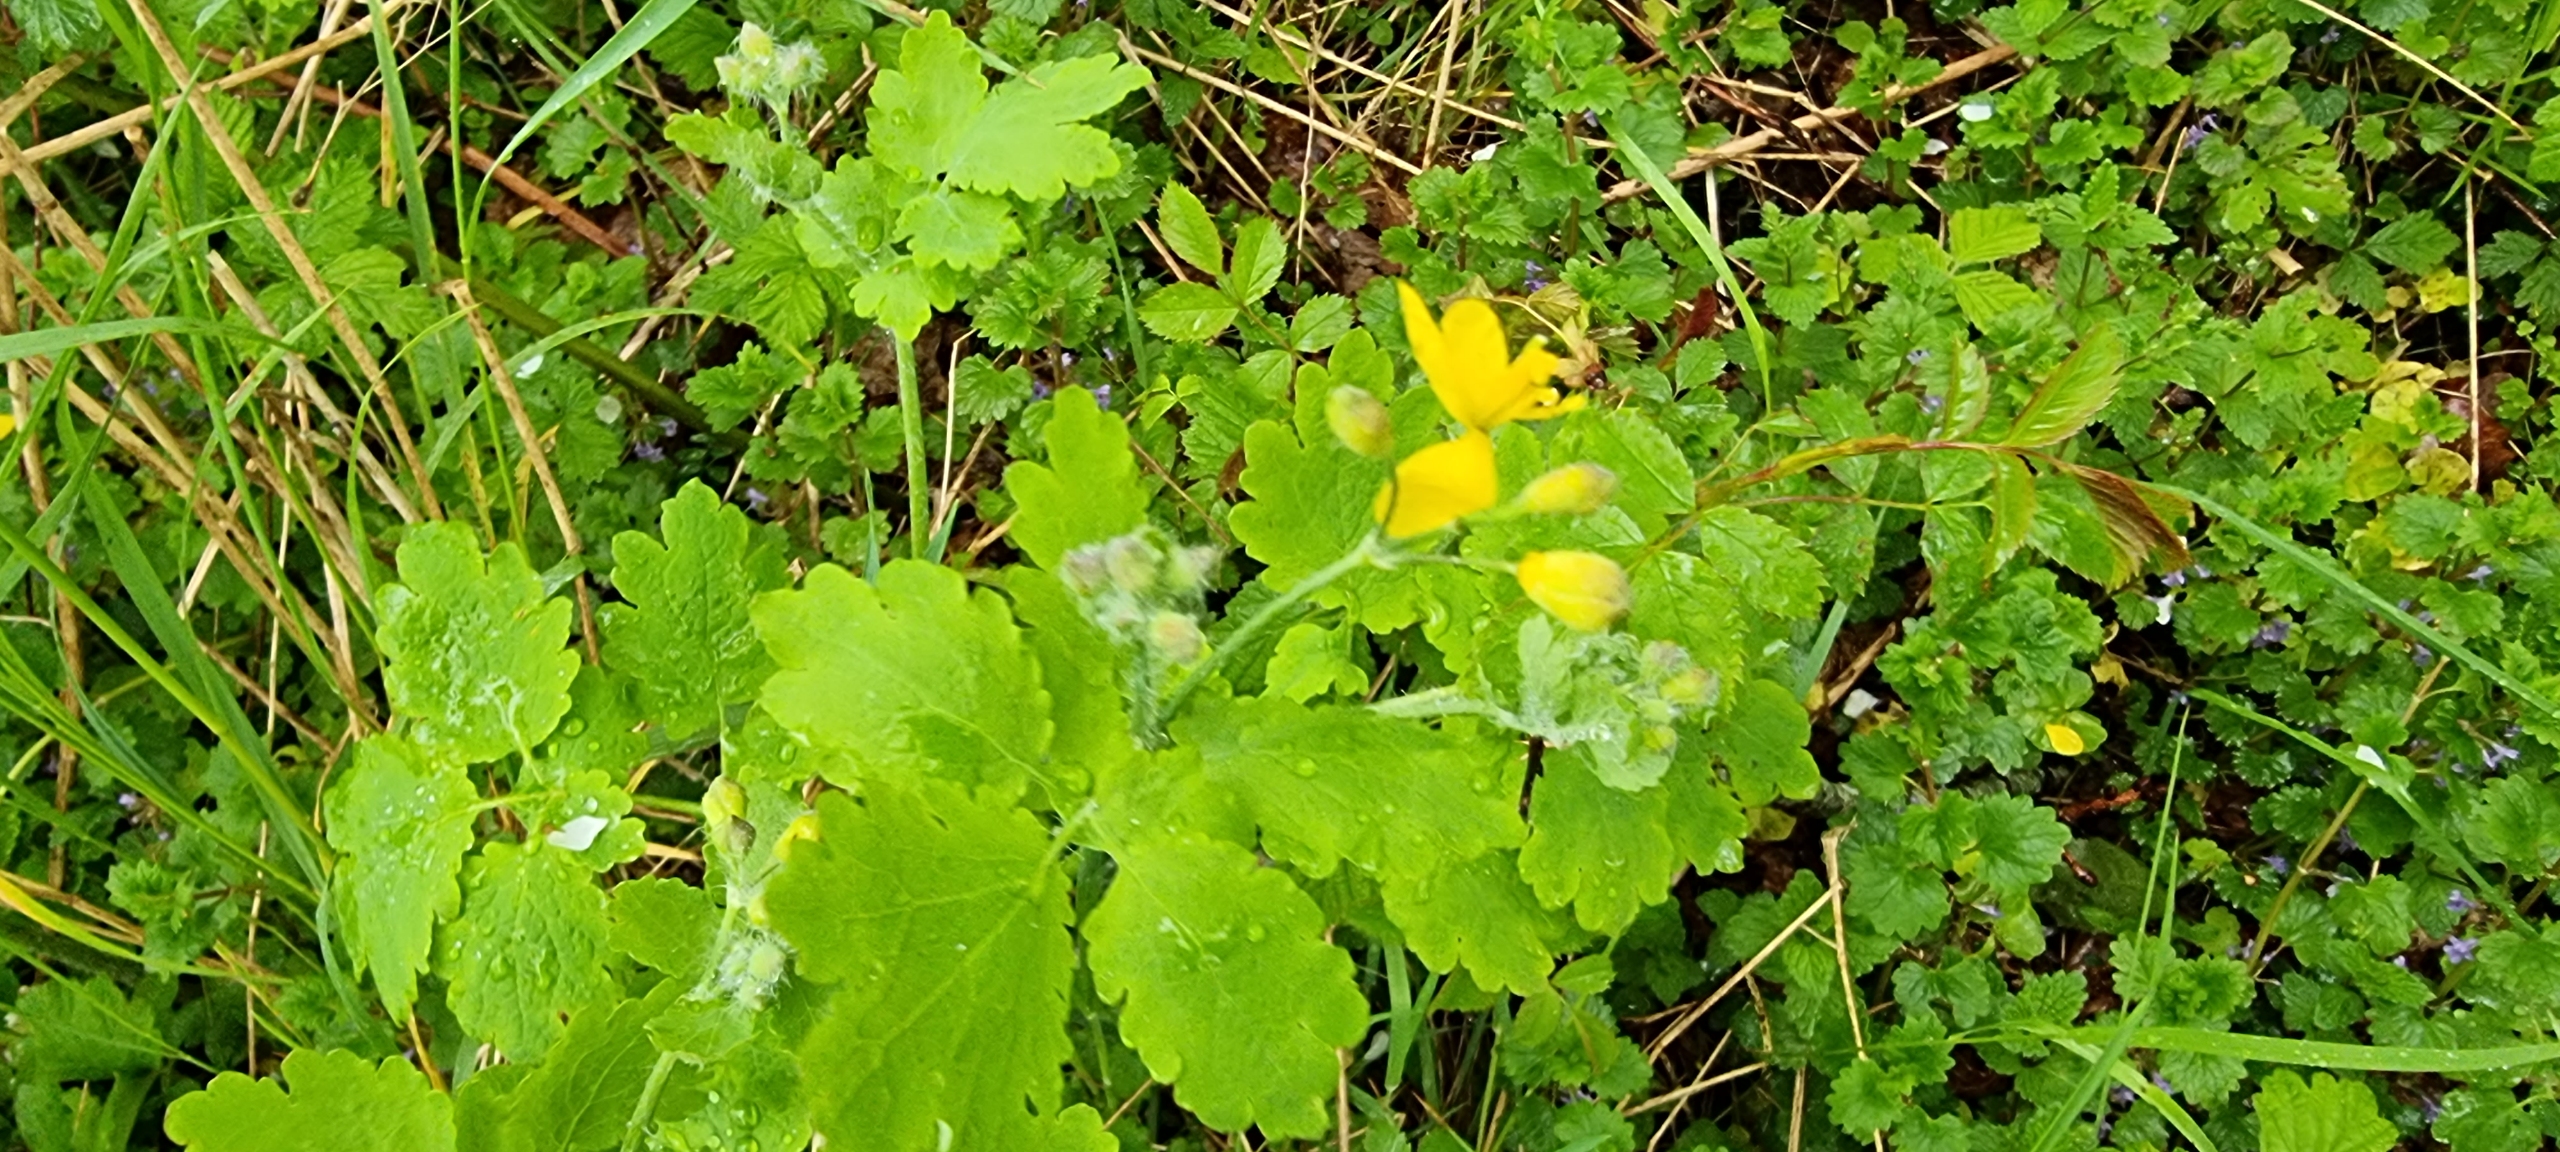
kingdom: Plantae
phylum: Tracheophyta
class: Magnoliopsida
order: Ranunculales
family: Papaveraceae
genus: Chelidonium
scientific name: Chelidonium majus
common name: Svaleurt
